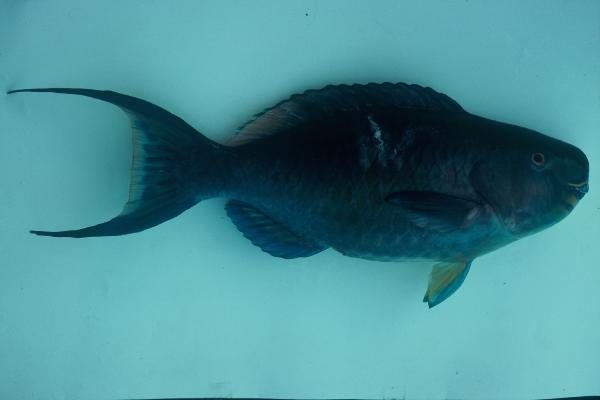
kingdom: Animalia
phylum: Chordata
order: Perciformes
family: Scaridae
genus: Scarus
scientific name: Scarus
